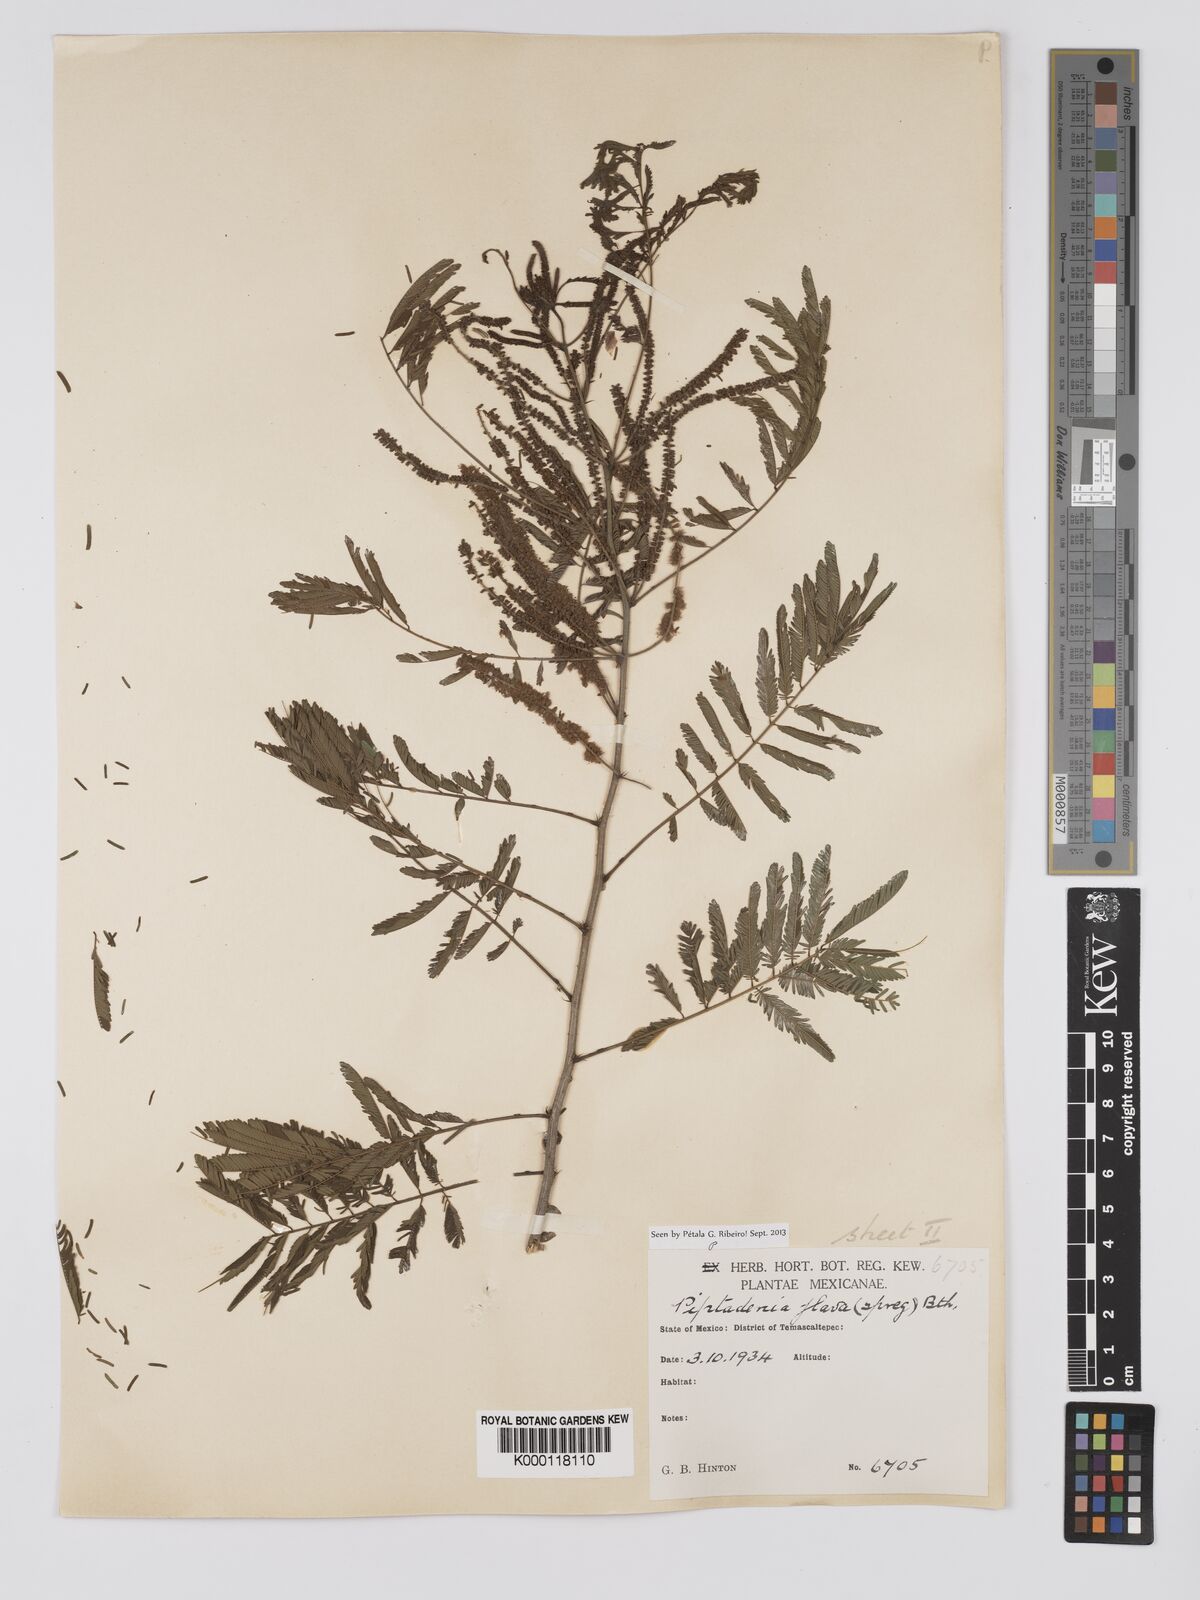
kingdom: Plantae
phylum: Tracheophyta
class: Magnoliopsida
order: Fabales
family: Fabaceae
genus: Piptadenia
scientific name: Piptadenia
